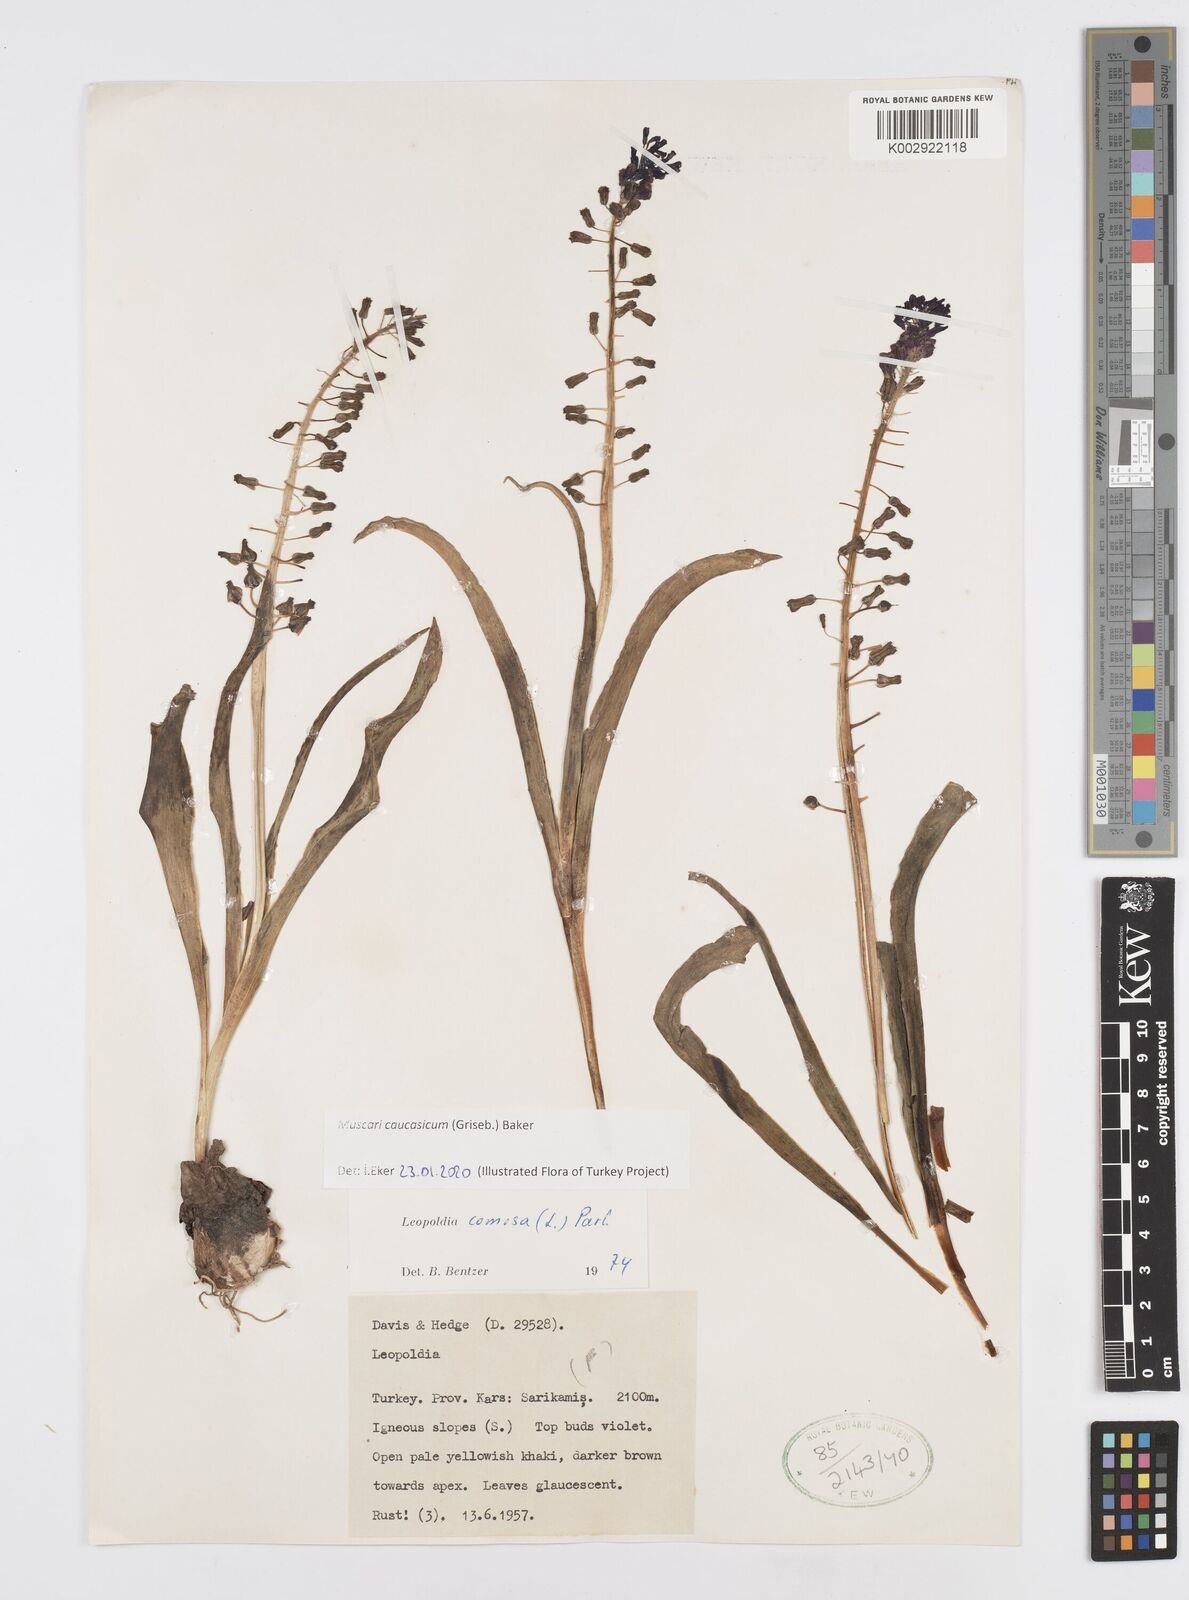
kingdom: Plantae
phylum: Tracheophyta
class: Liliopsida
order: Asparagales
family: Asparagaceae
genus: Muscari
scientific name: Muscari comosum
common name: Tassel hyacinth
